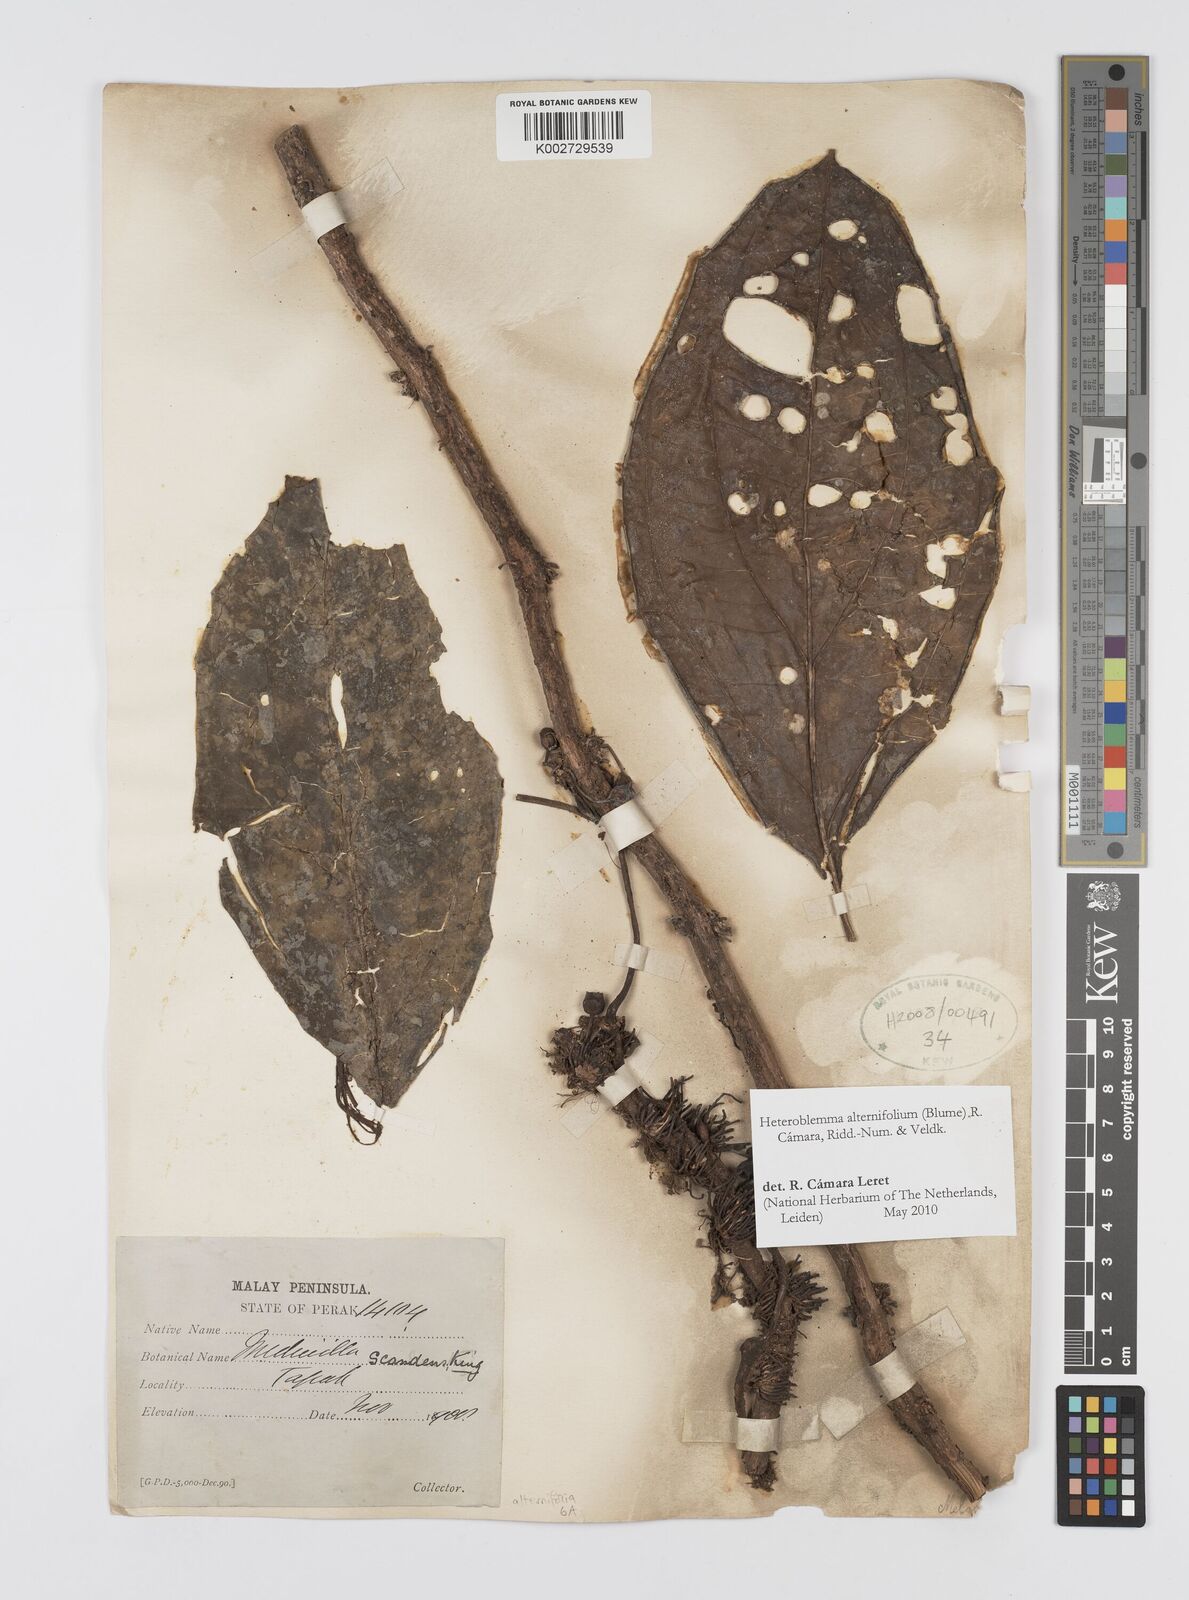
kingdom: Plantae
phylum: Tracheophyta
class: Magnoliopsida
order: Myrtales
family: Melastomataceae
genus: Heteroblemma
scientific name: Heteroblemma alternifolium
